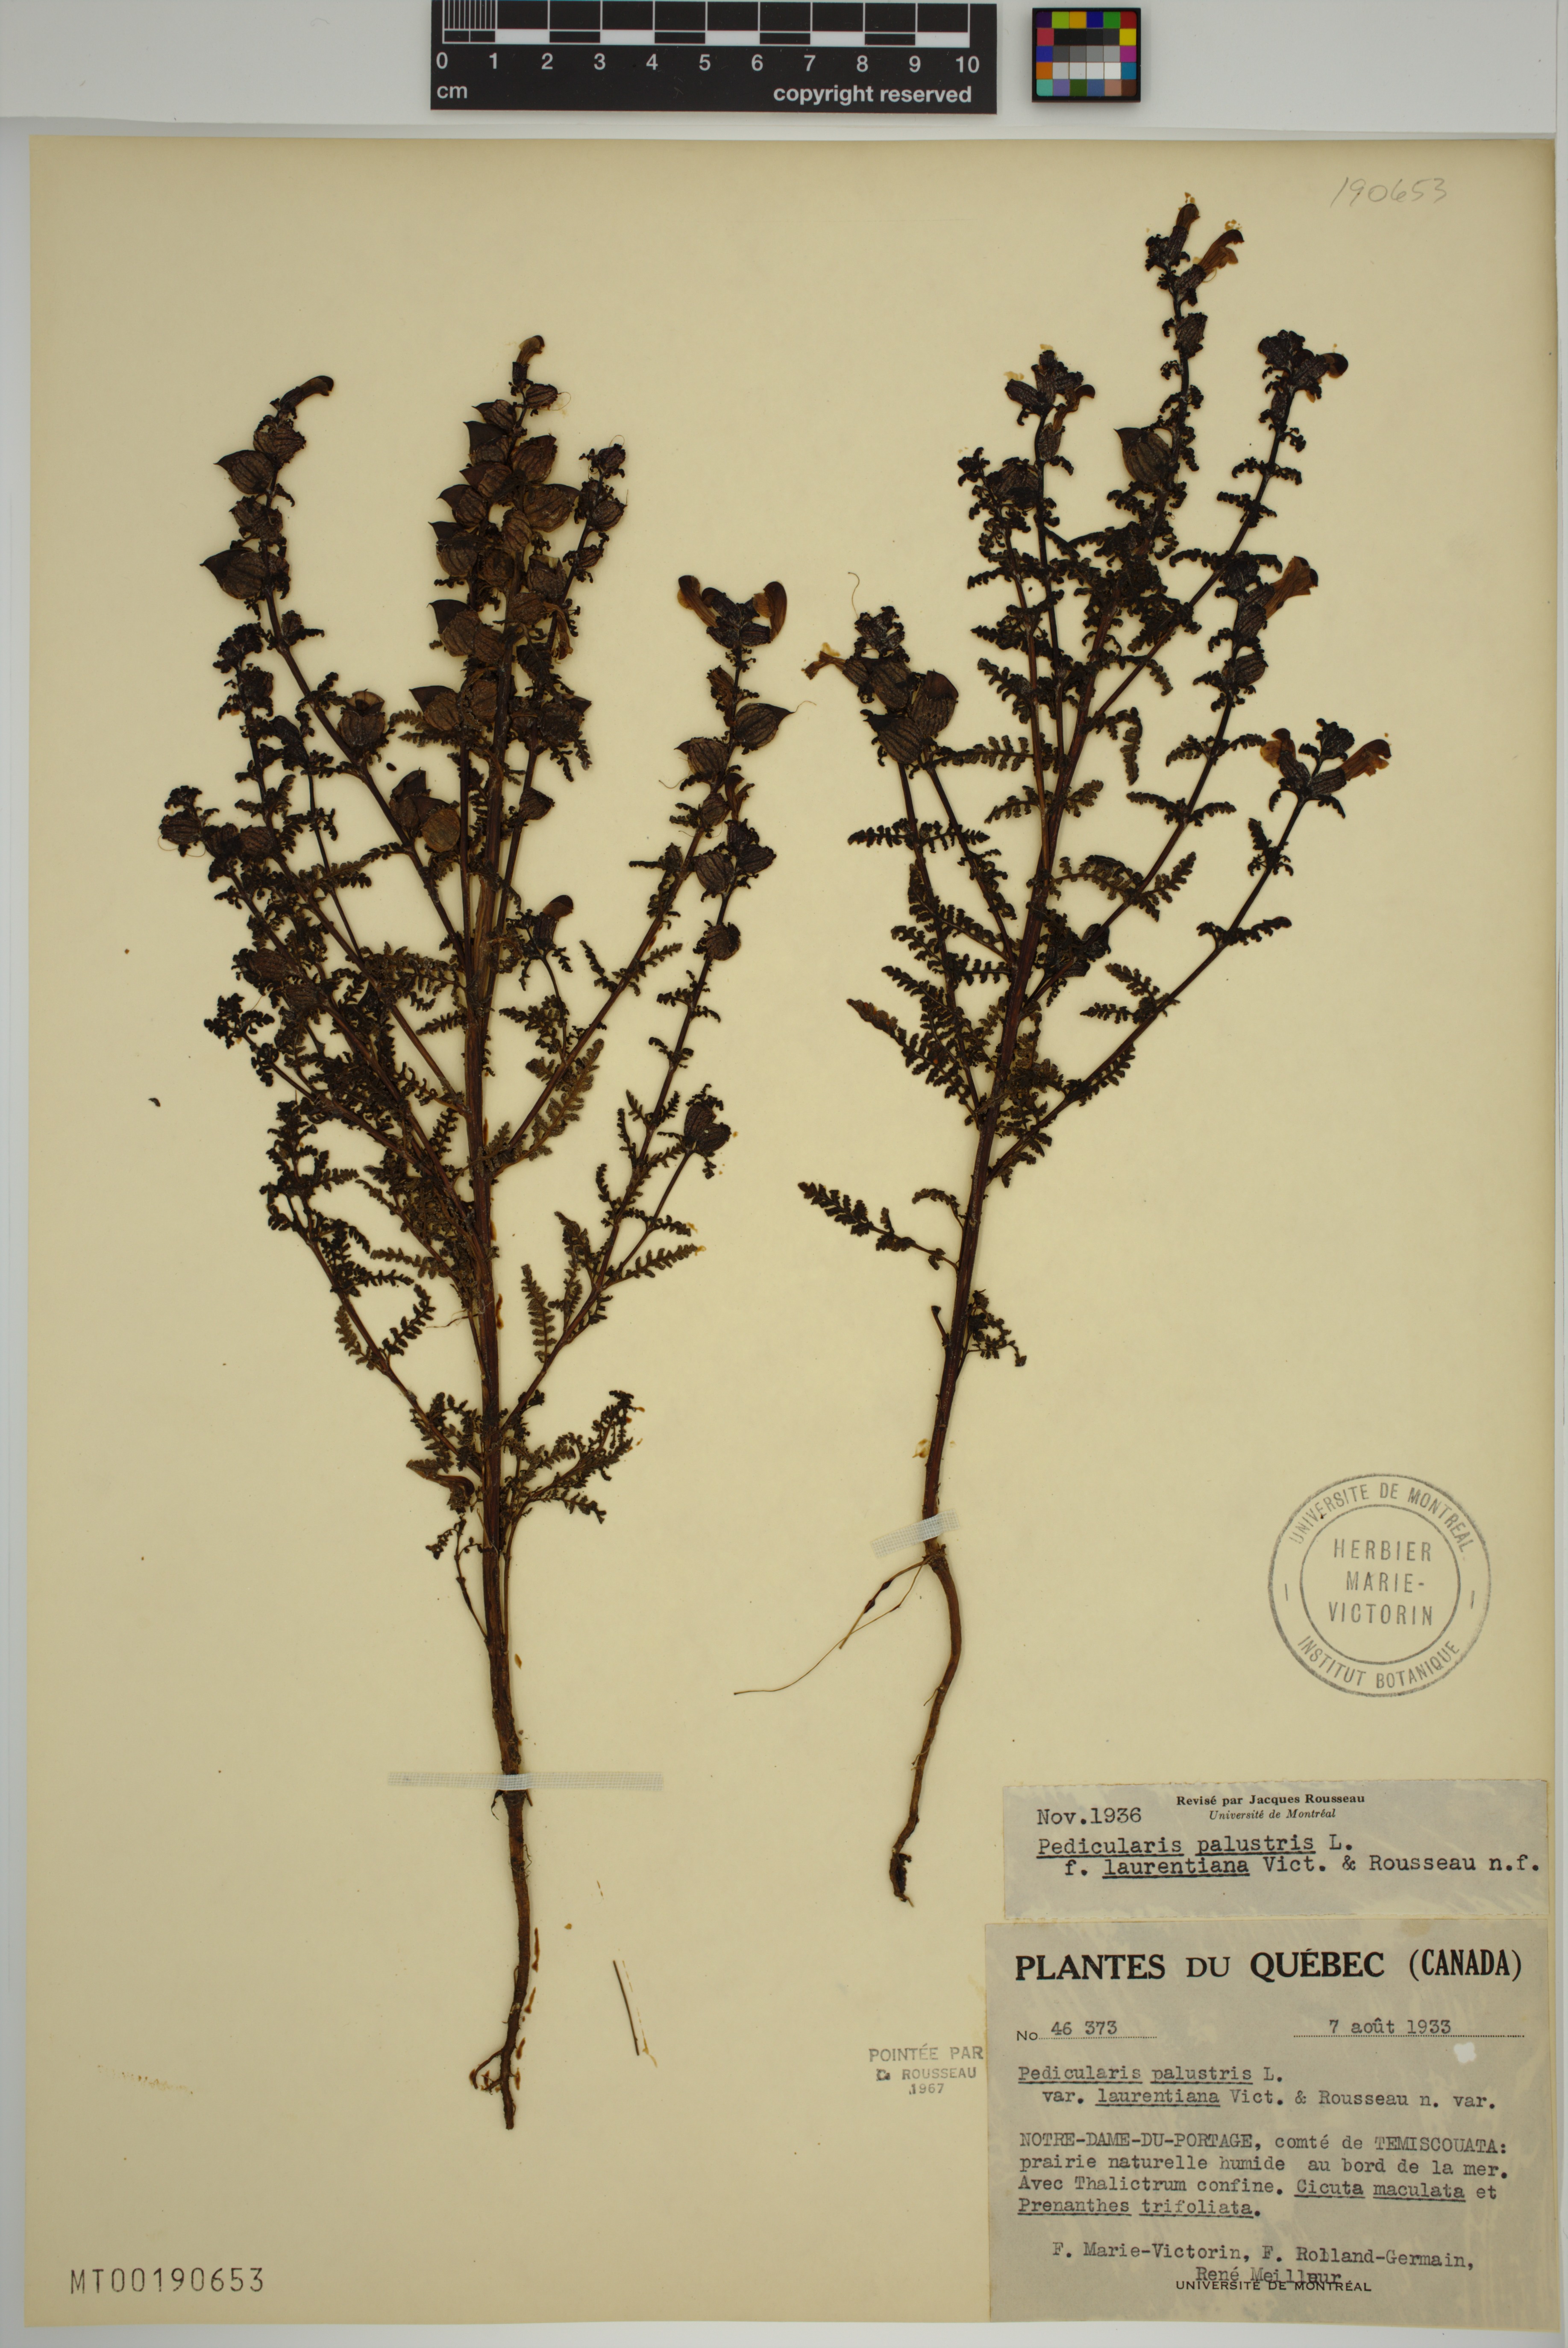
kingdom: Plantae
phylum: Tracheophyta
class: Magnoliopsida
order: Lamiales
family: Orobanchaceae
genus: Pedicularis
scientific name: Pedicularis palustris
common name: Marsh lousewort
